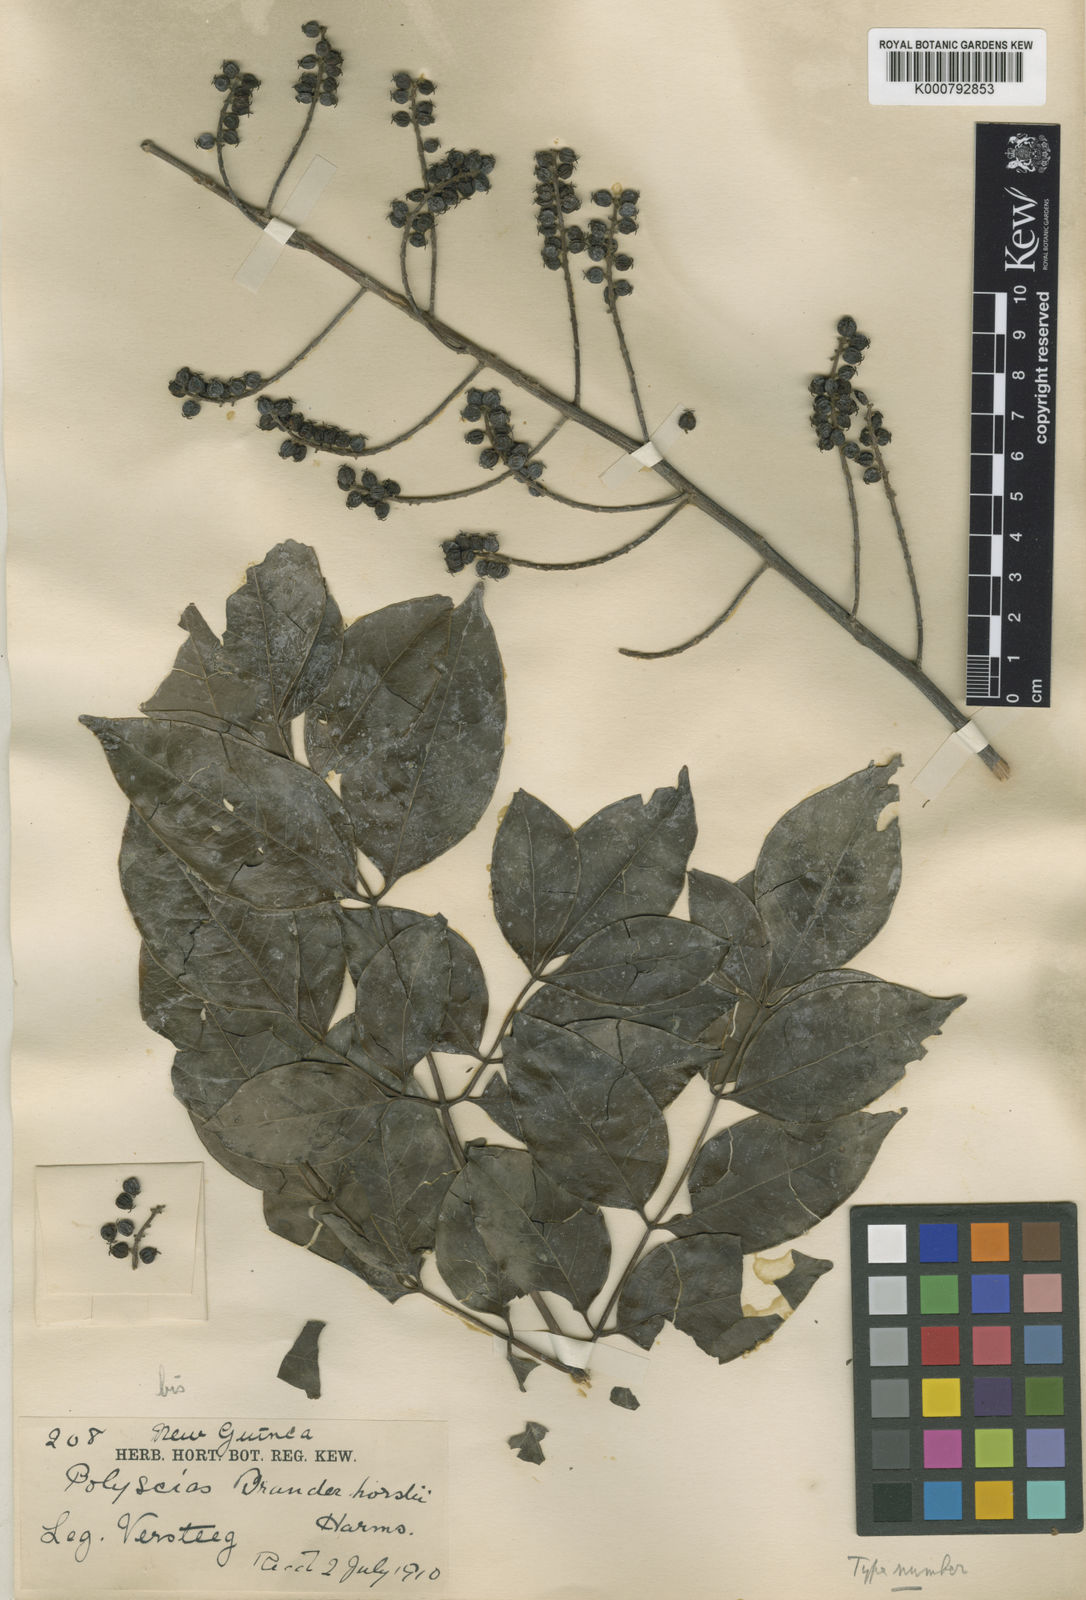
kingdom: Plantae
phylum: Tracheophyta
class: Magnoliopsida
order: Apiales
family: Araliaceae
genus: Polyscias
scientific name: Polyscias elegans
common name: Mowbulan whitewood
